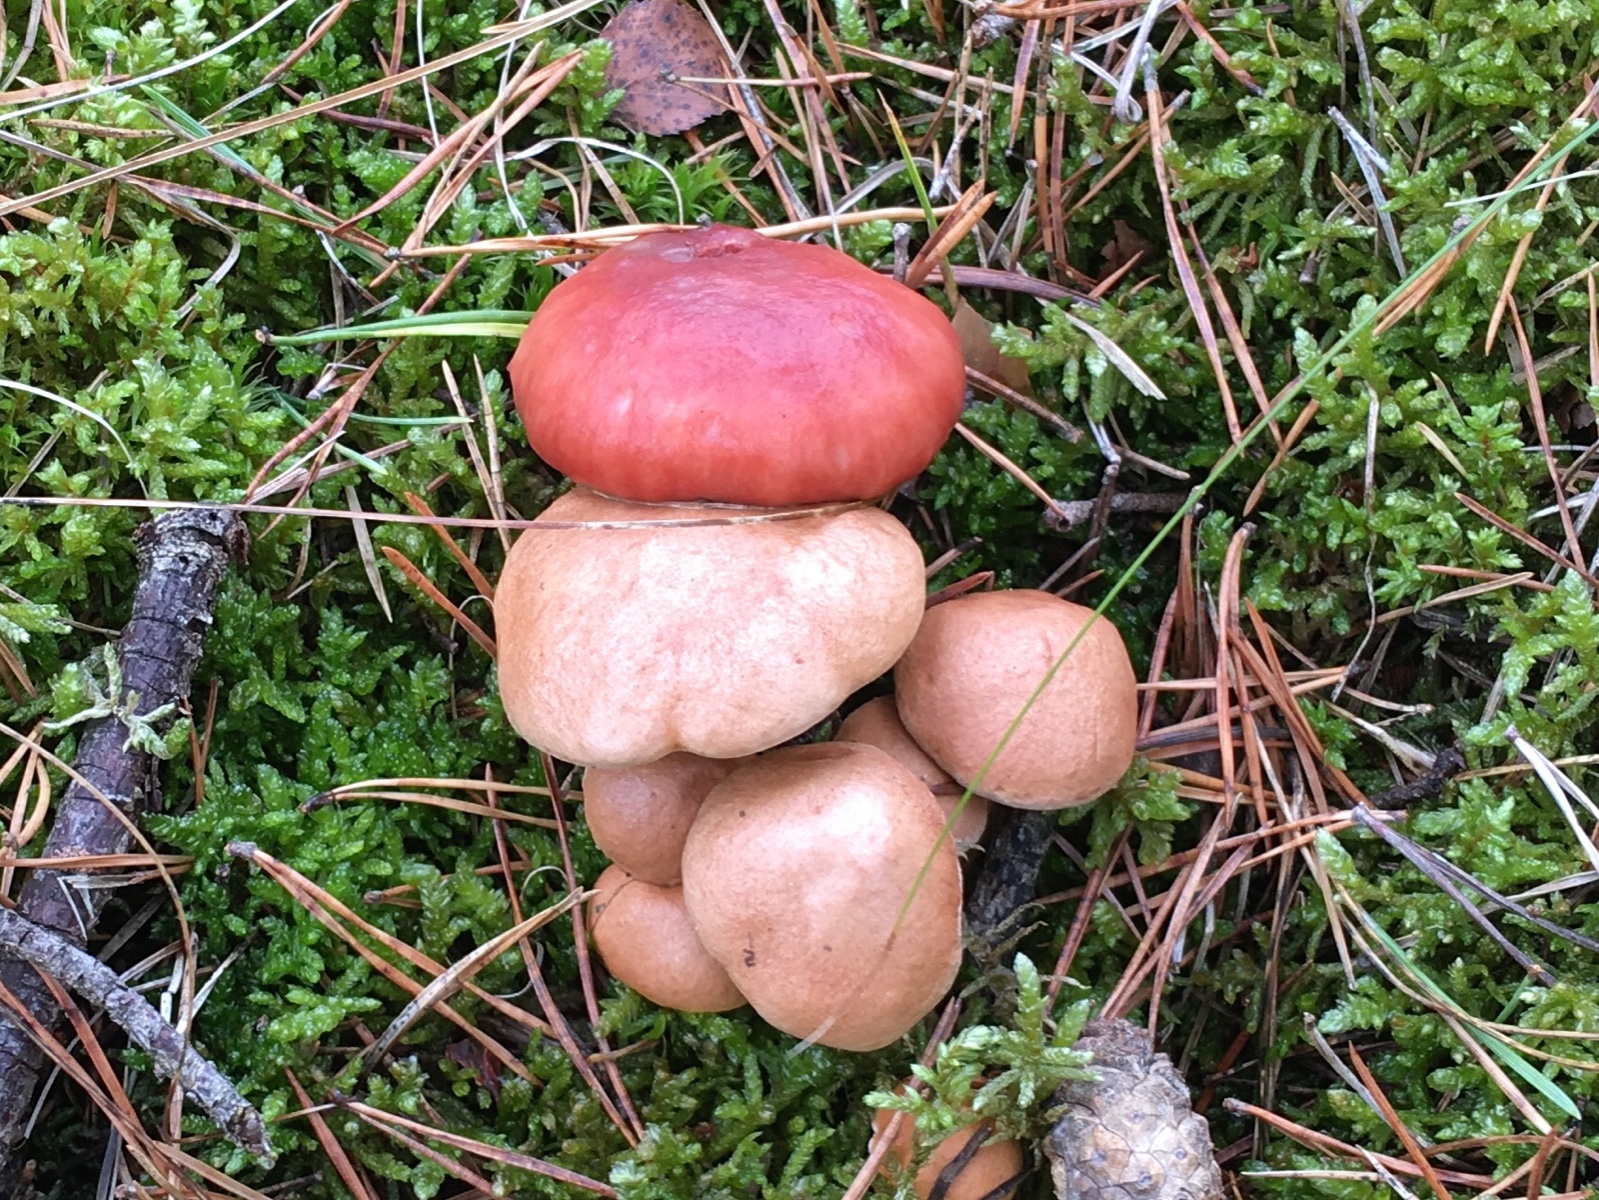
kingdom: Fungi
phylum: Basidiomycota
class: Agaricomycetes
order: Boletales
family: Suillaceae
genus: Suillus
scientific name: Suillus bovinus
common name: grovporet slimrørhat
